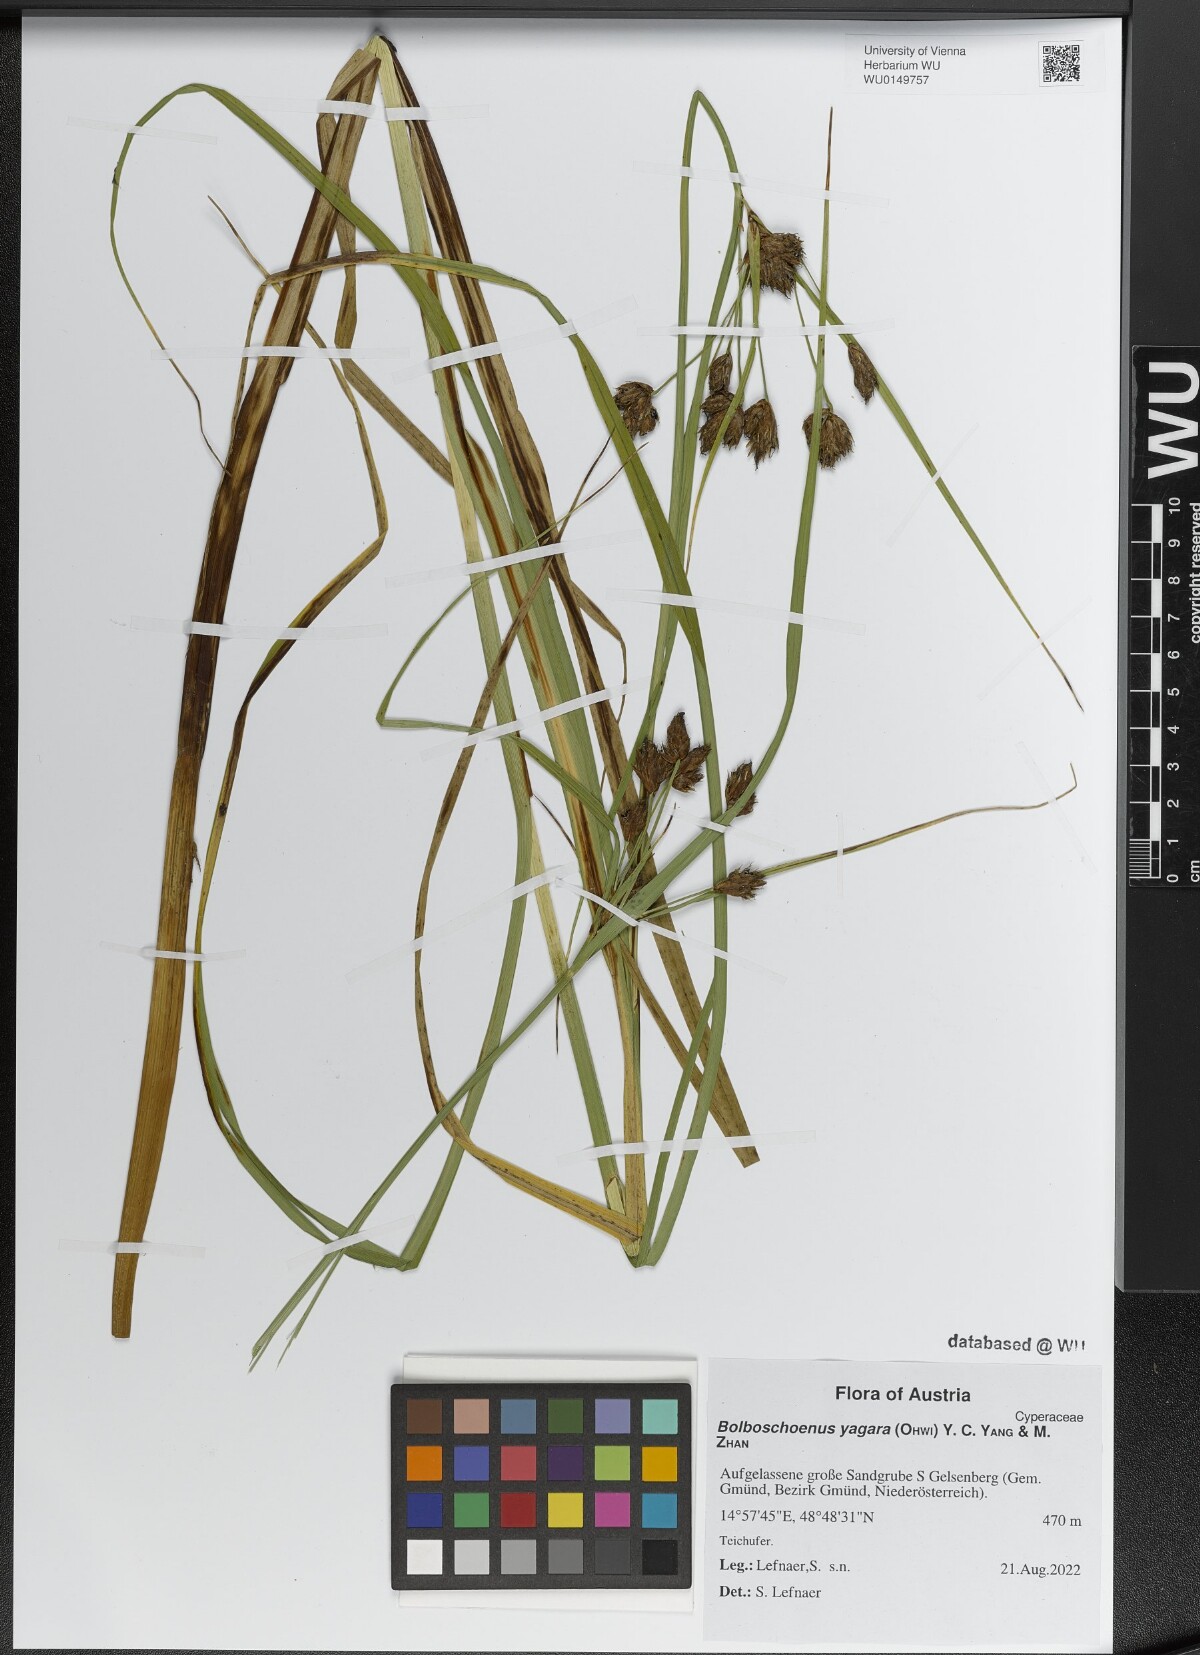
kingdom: Plantae
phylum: Tracheophyta
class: Liliopsida
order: Poales
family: Cyperaceae
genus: Bolboschoenus
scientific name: Bolboschoenus yagara
